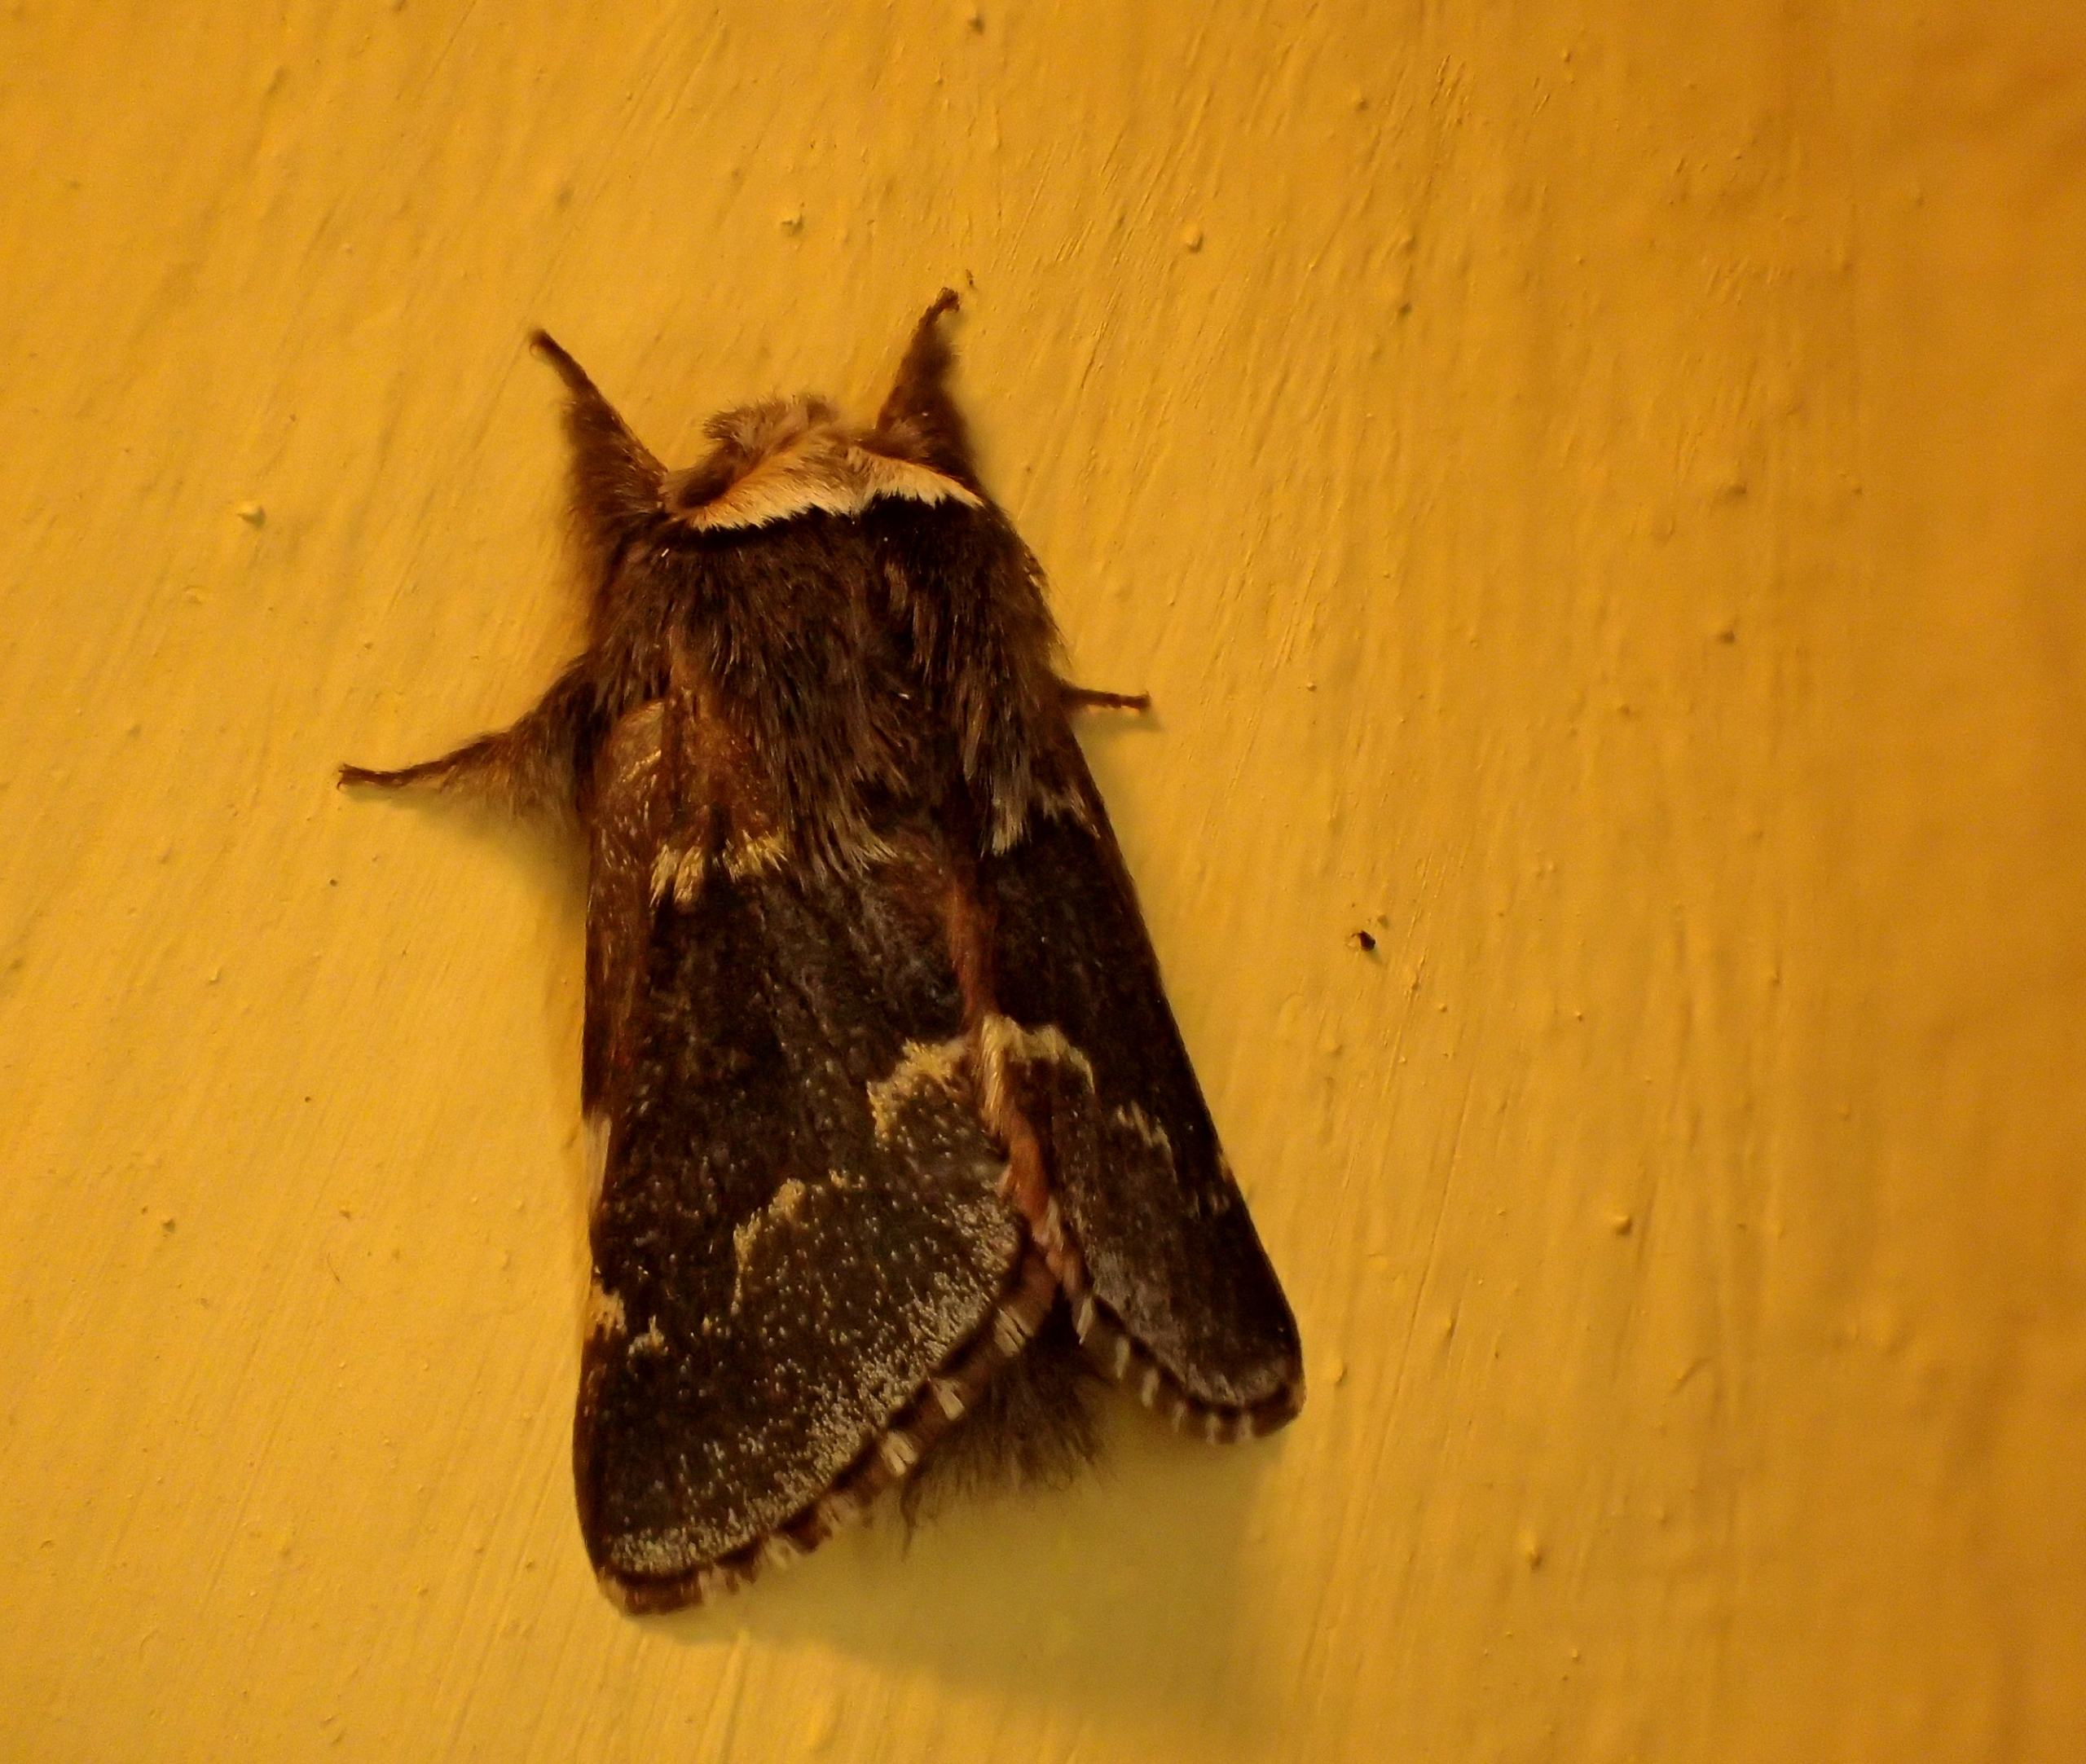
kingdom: Animalia
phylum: Arthropoda
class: Insecta
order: Lepidoptera
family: Lasiocampidae
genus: Poecilocampa
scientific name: Poecilocampa populi
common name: Poppelspinder
